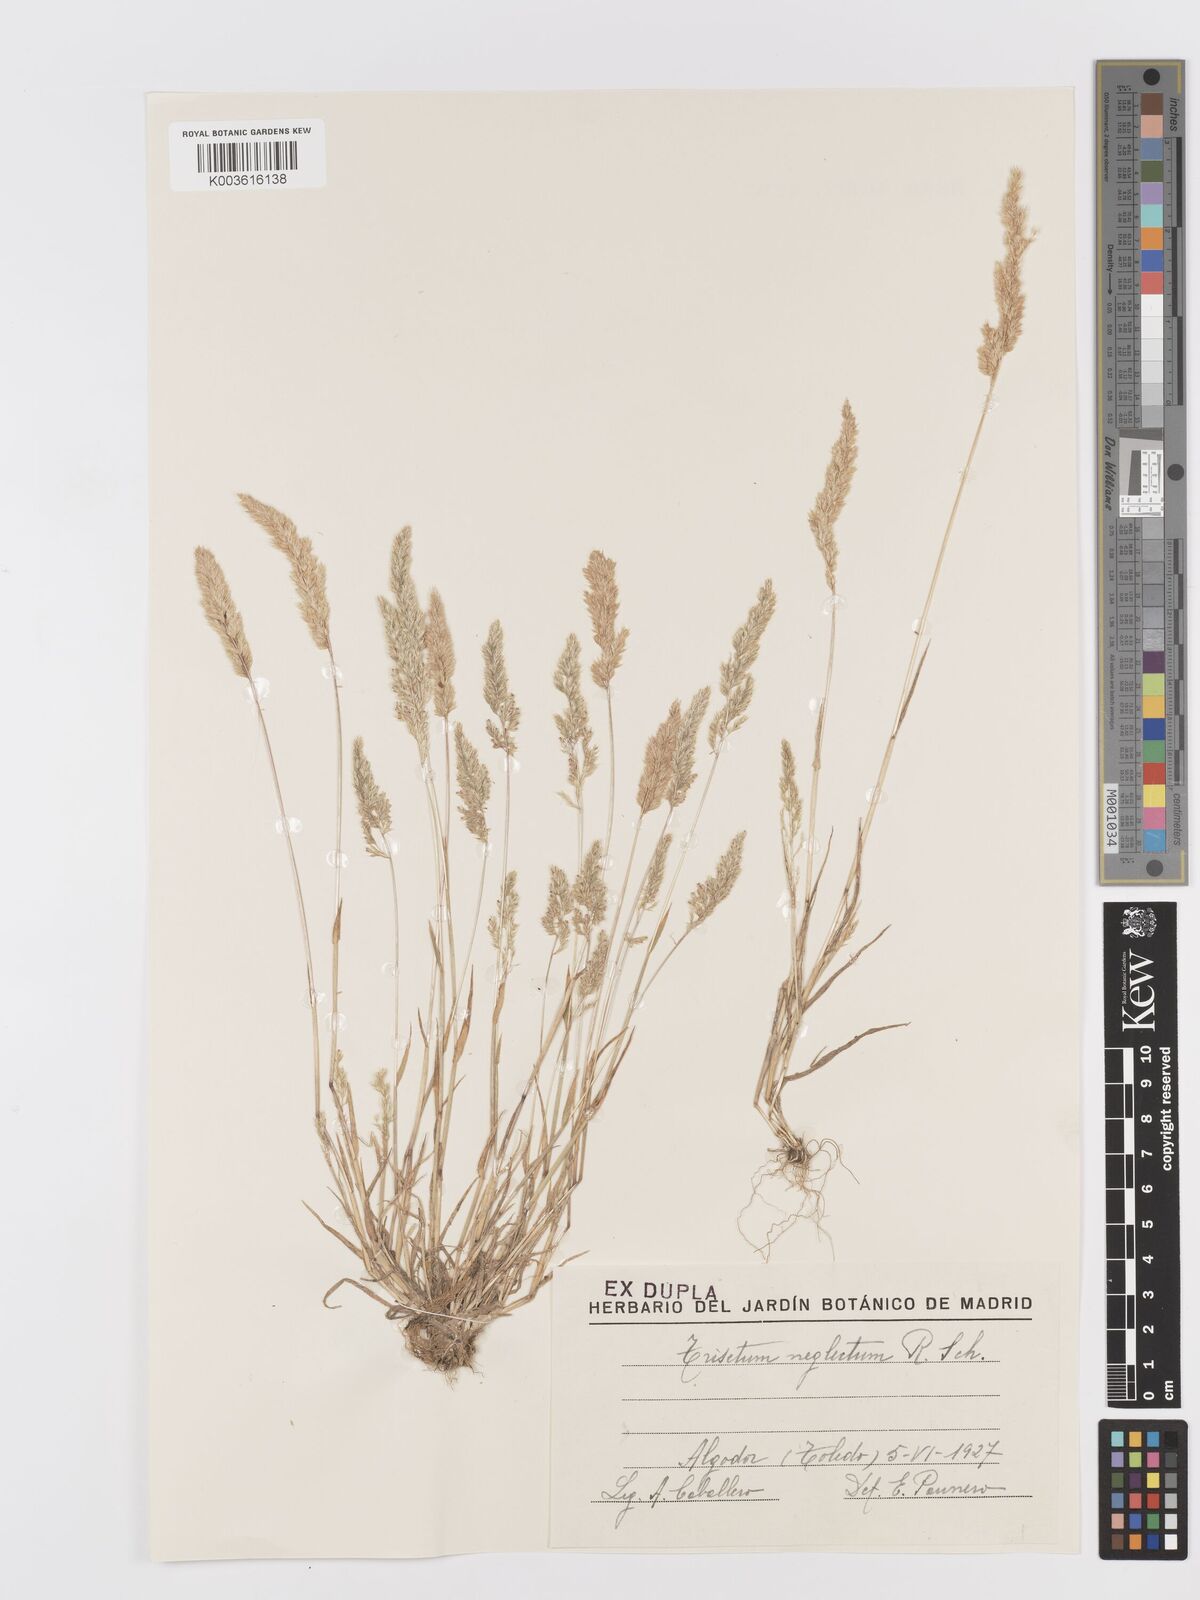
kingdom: Plantae
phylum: Tracheophyta
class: Liliopsida
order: Poales
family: Poaceae
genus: Trisetaria
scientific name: Trisetaria panicea
